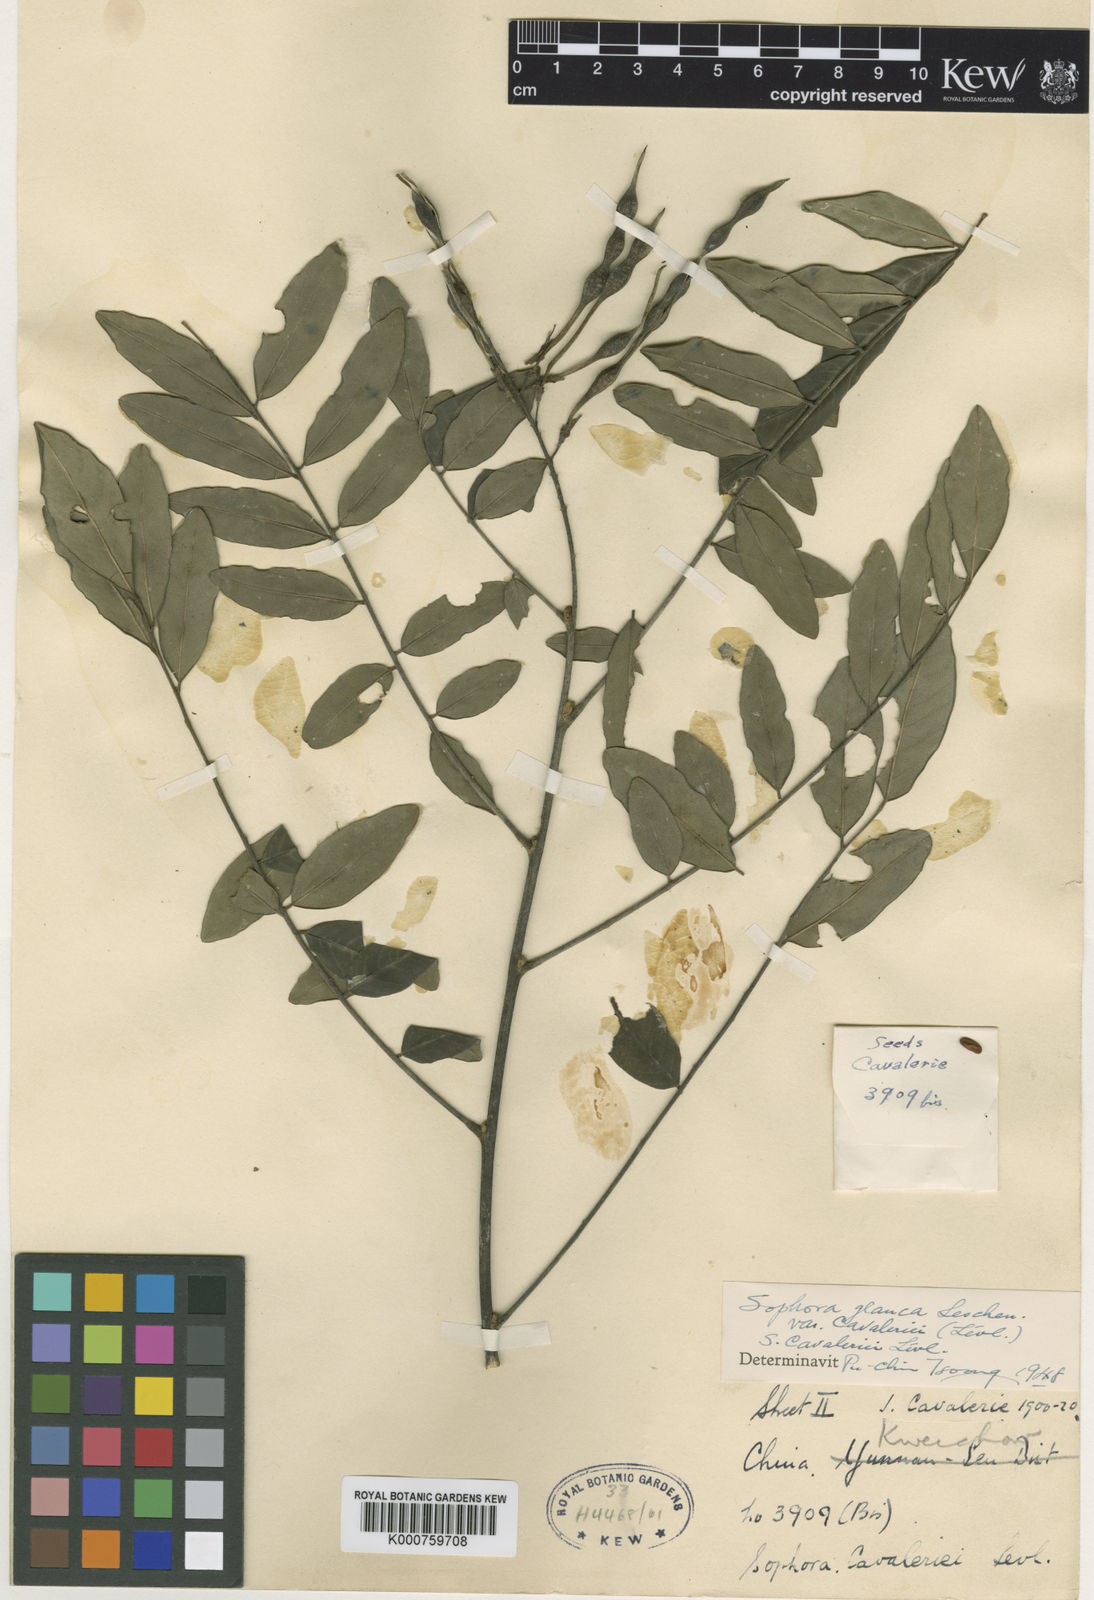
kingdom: Plantae
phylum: Tracheophyta
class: Magnoliopsida
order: Fabales
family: Fabaceae
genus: Sophora
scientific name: Sophora velutina
